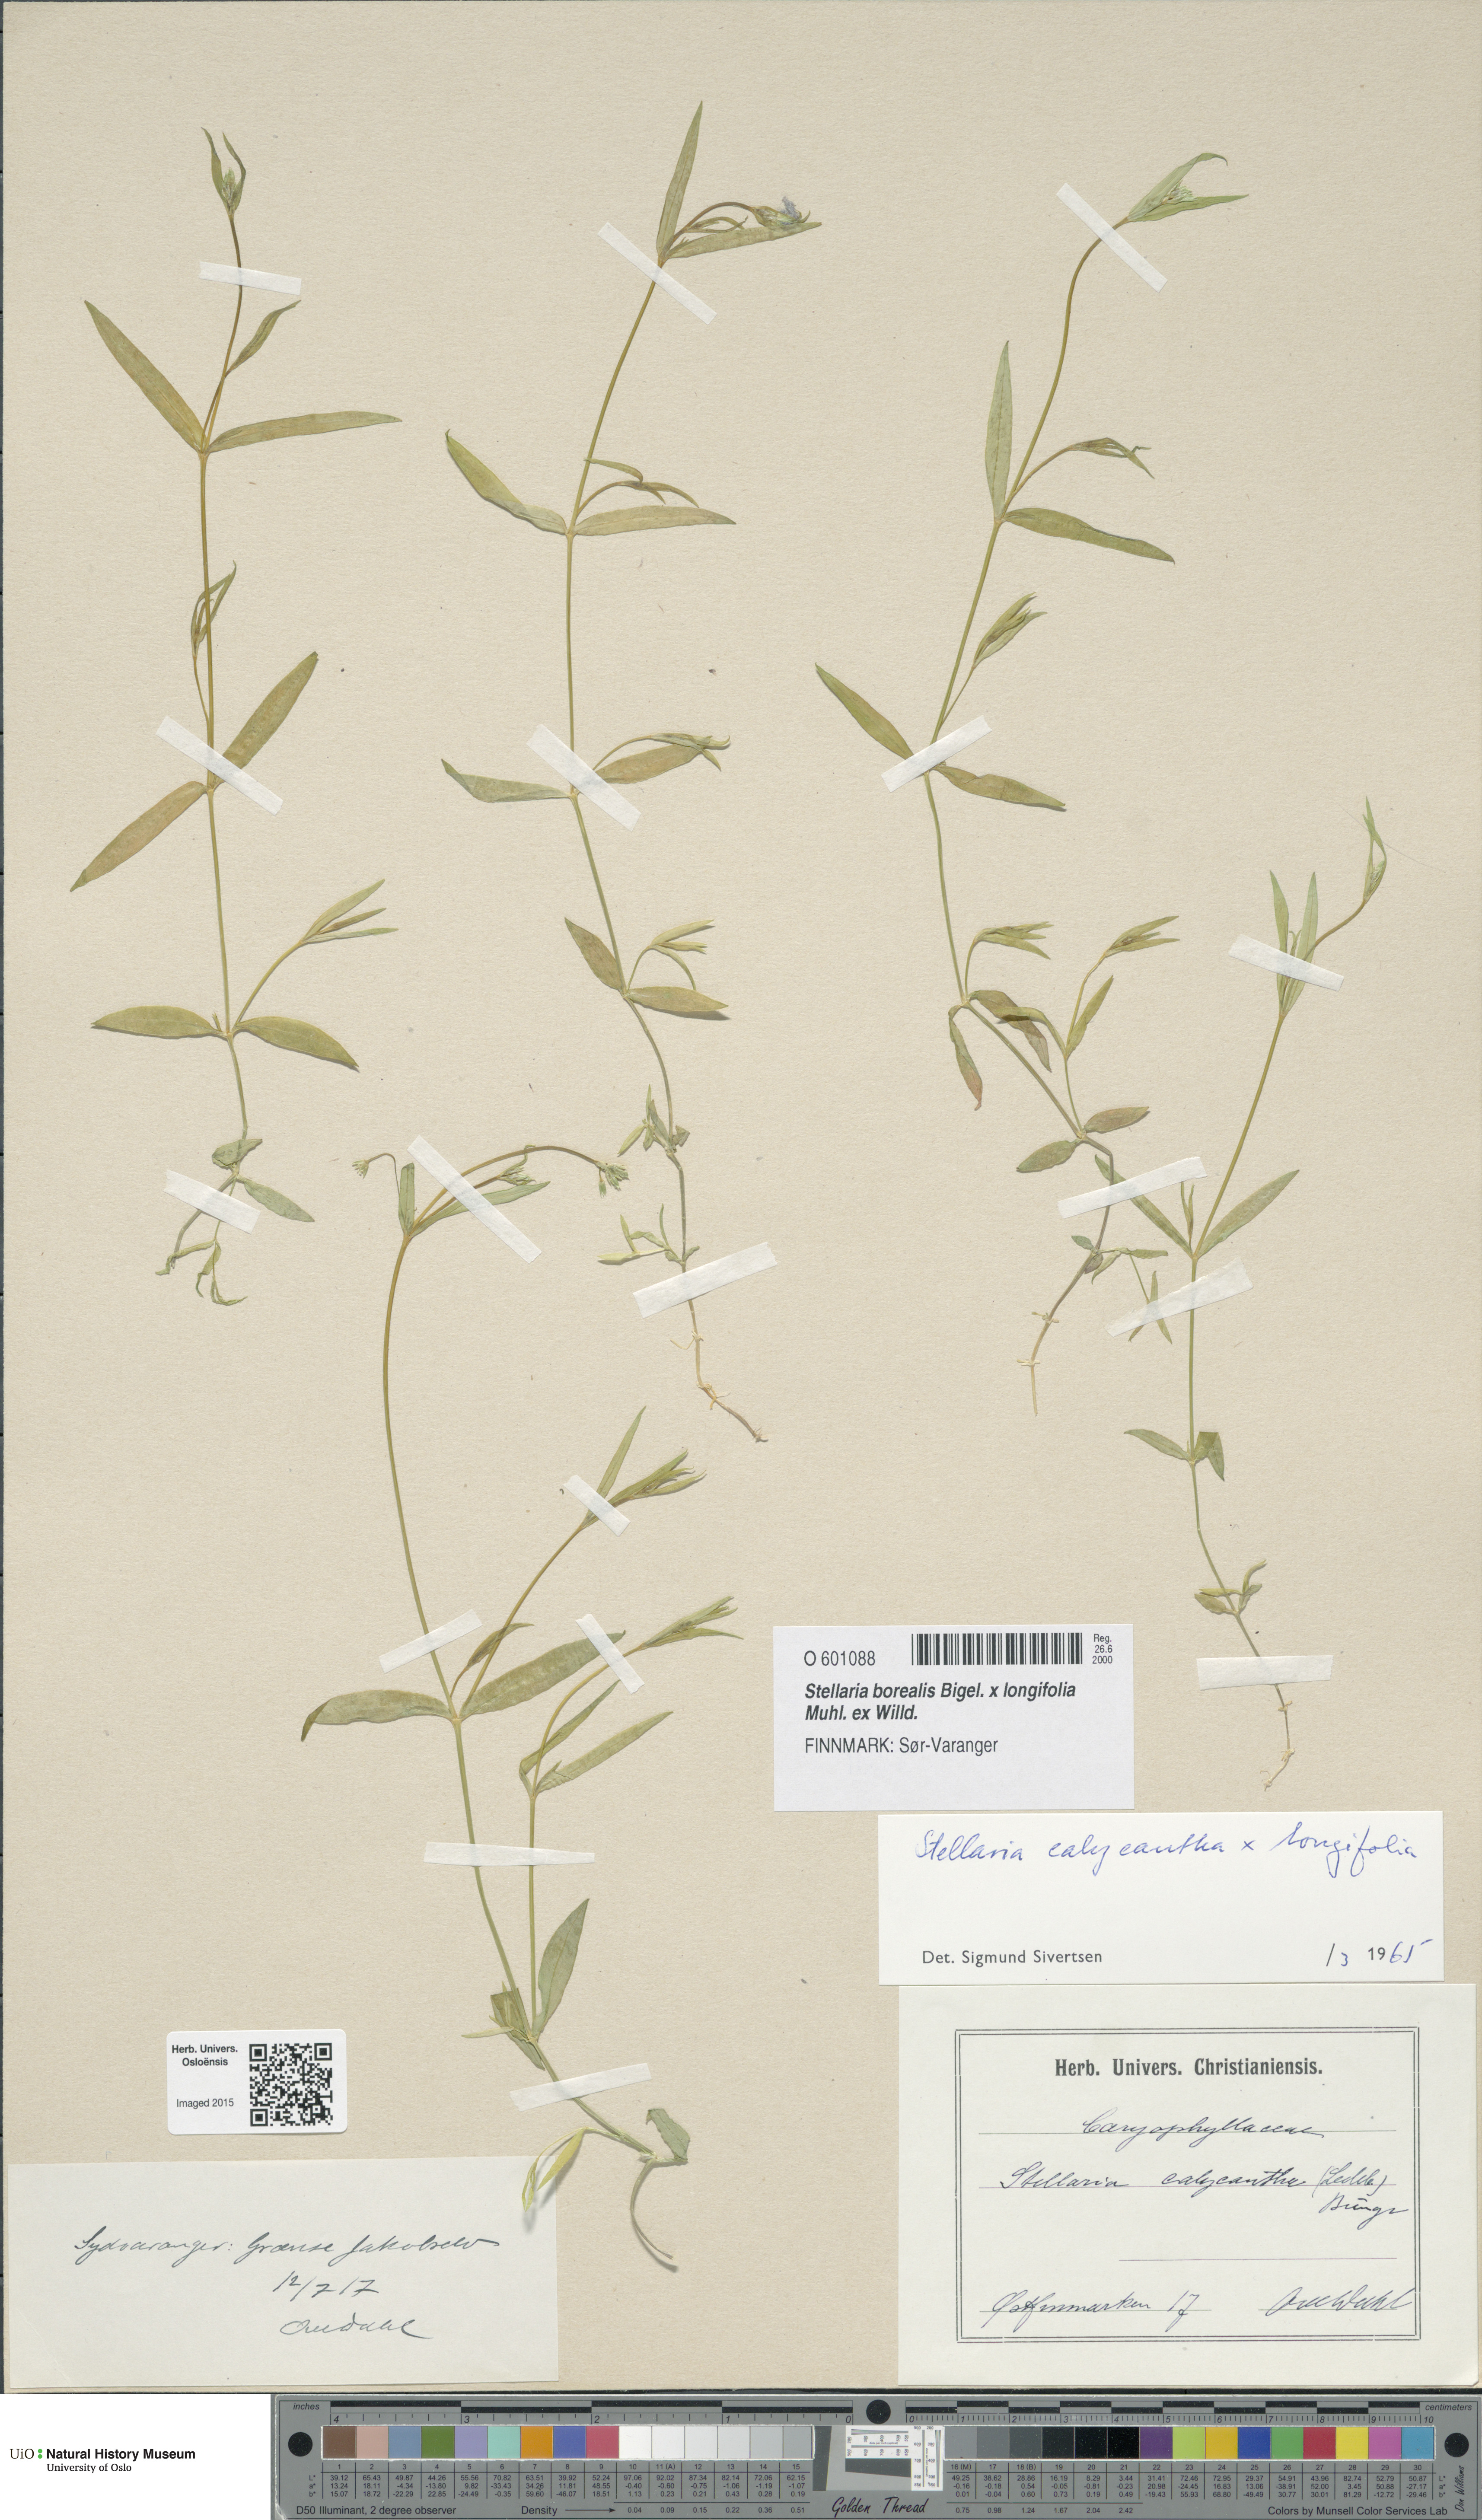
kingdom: Plantae
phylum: Tracheophyta
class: Magnoliopsida
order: Caryophyllales
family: Caryophyllaceae
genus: Stellaria
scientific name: Stellaria
